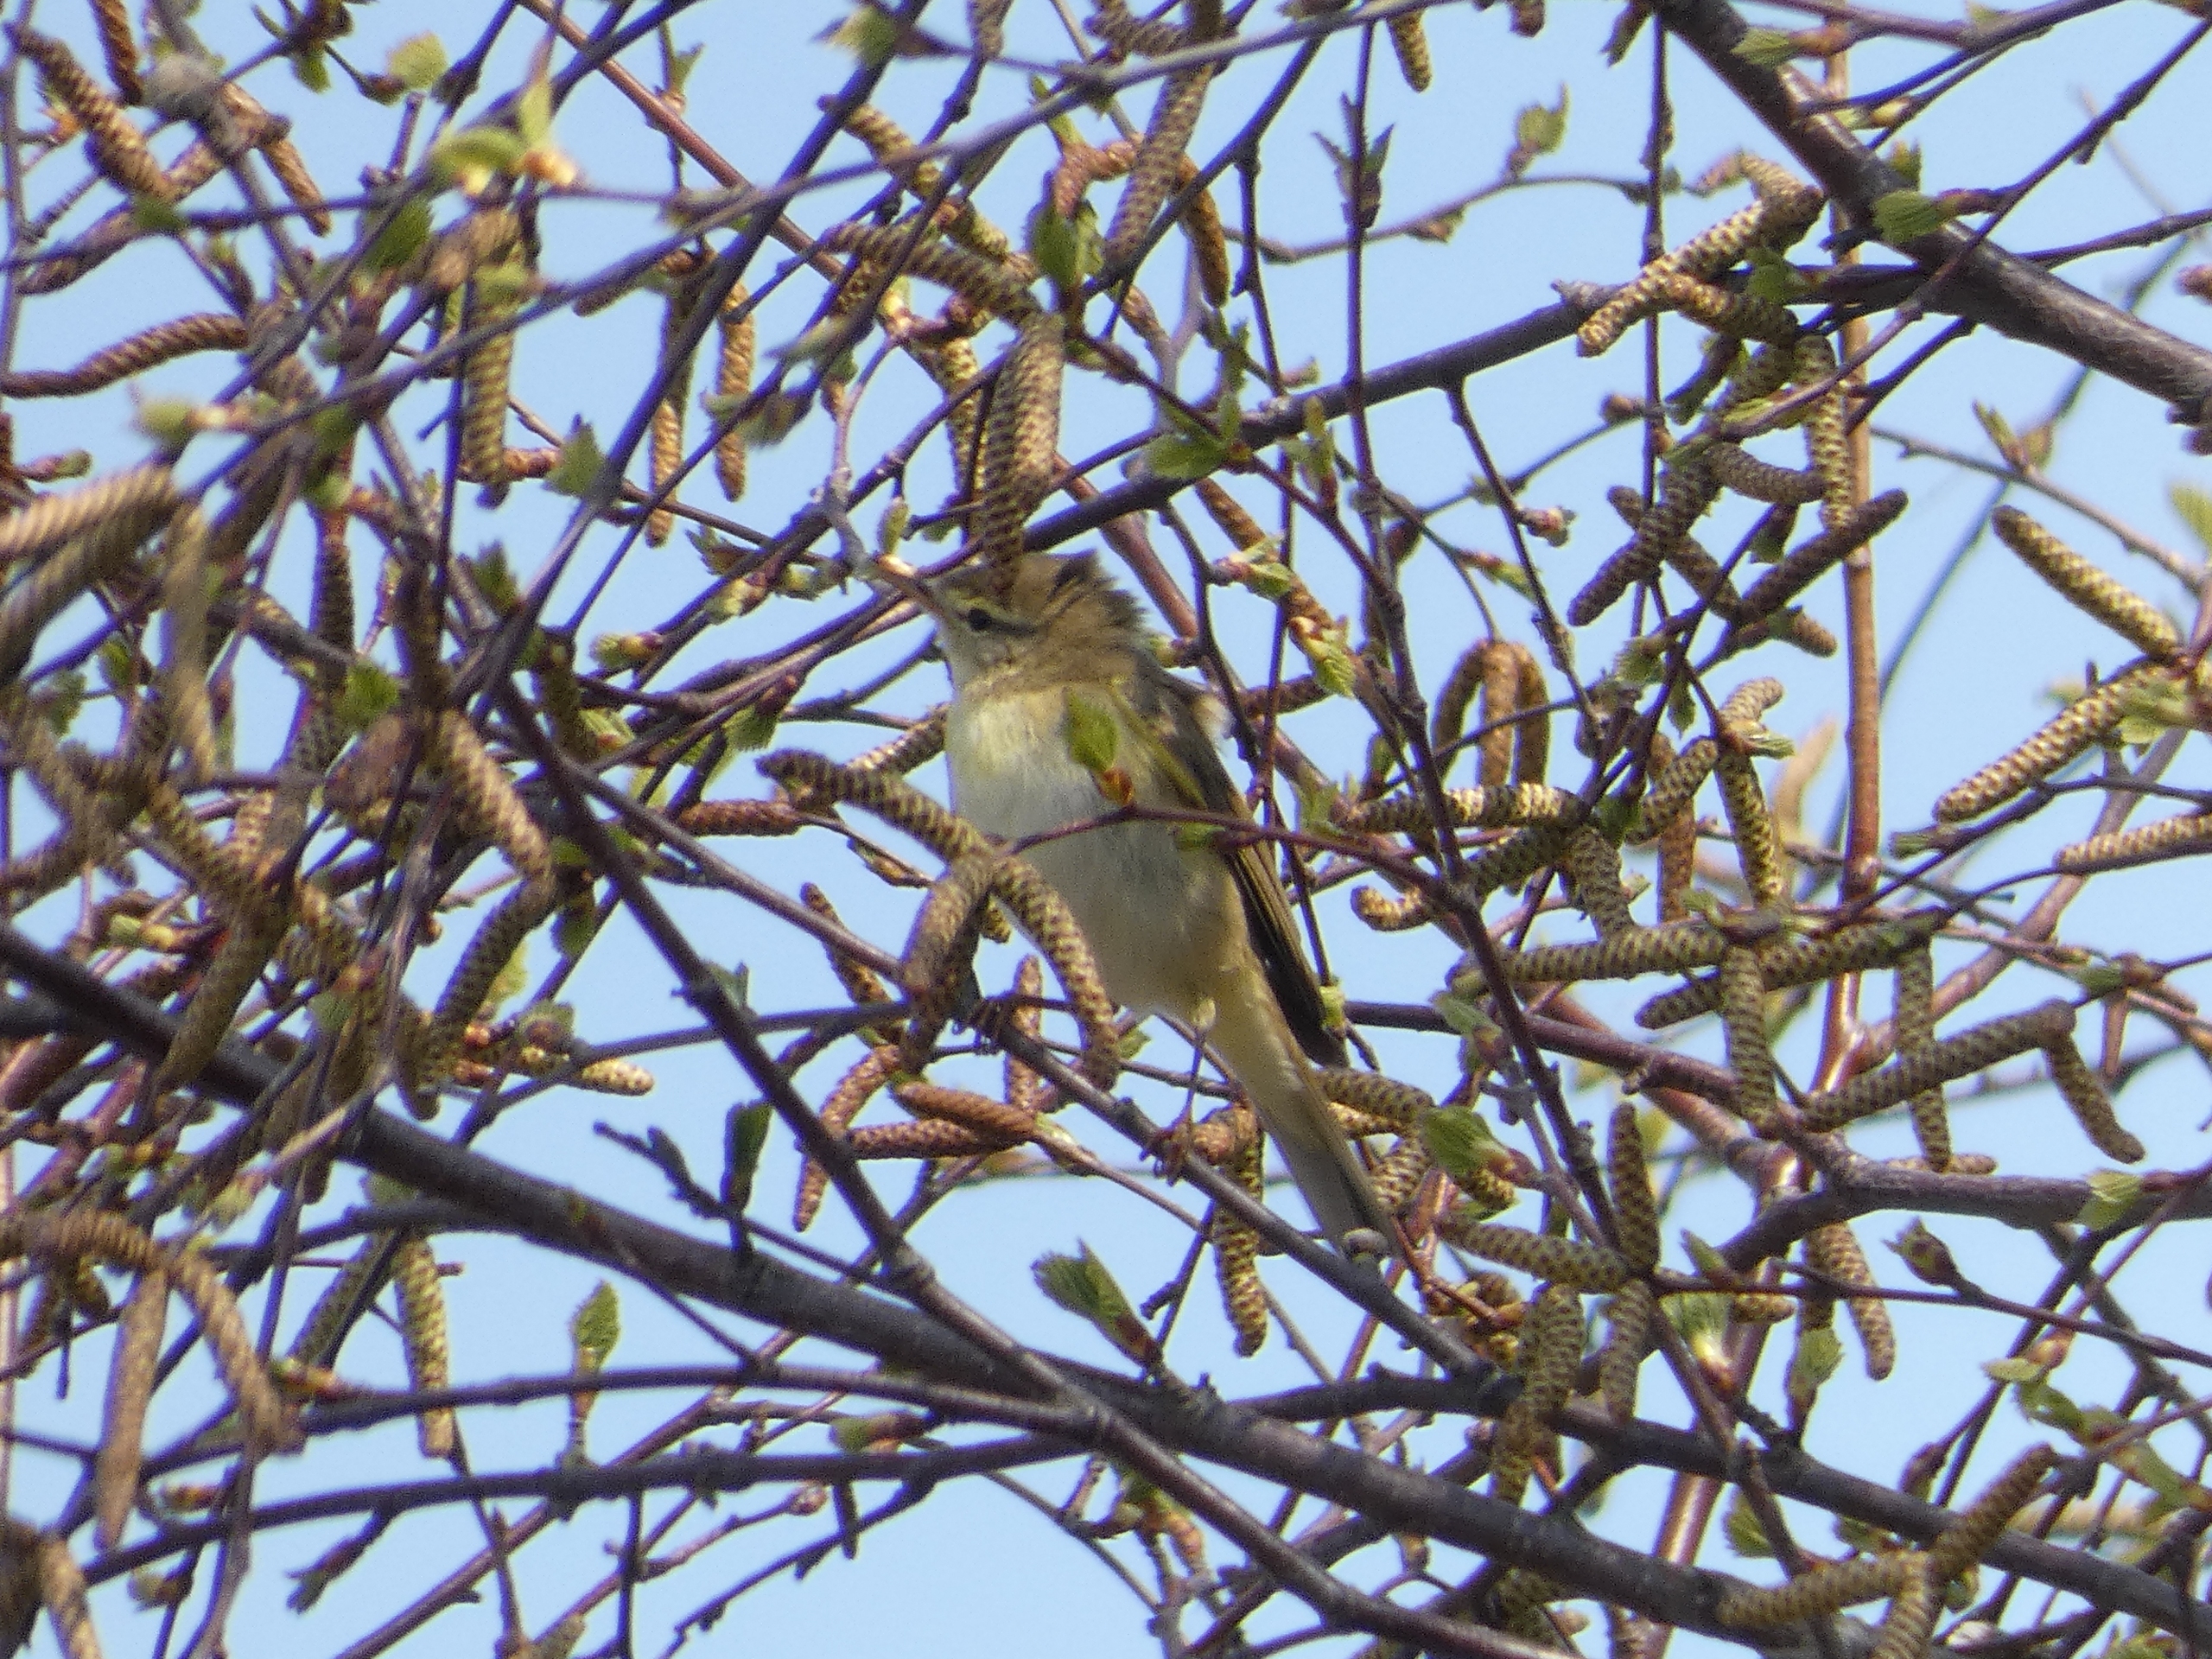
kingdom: Animalia
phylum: Chordata
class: Aves
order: Passeriformes
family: Phylloscopidae
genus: Phylloscopus
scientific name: Phylloscopus trochilus
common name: Løvsanger
